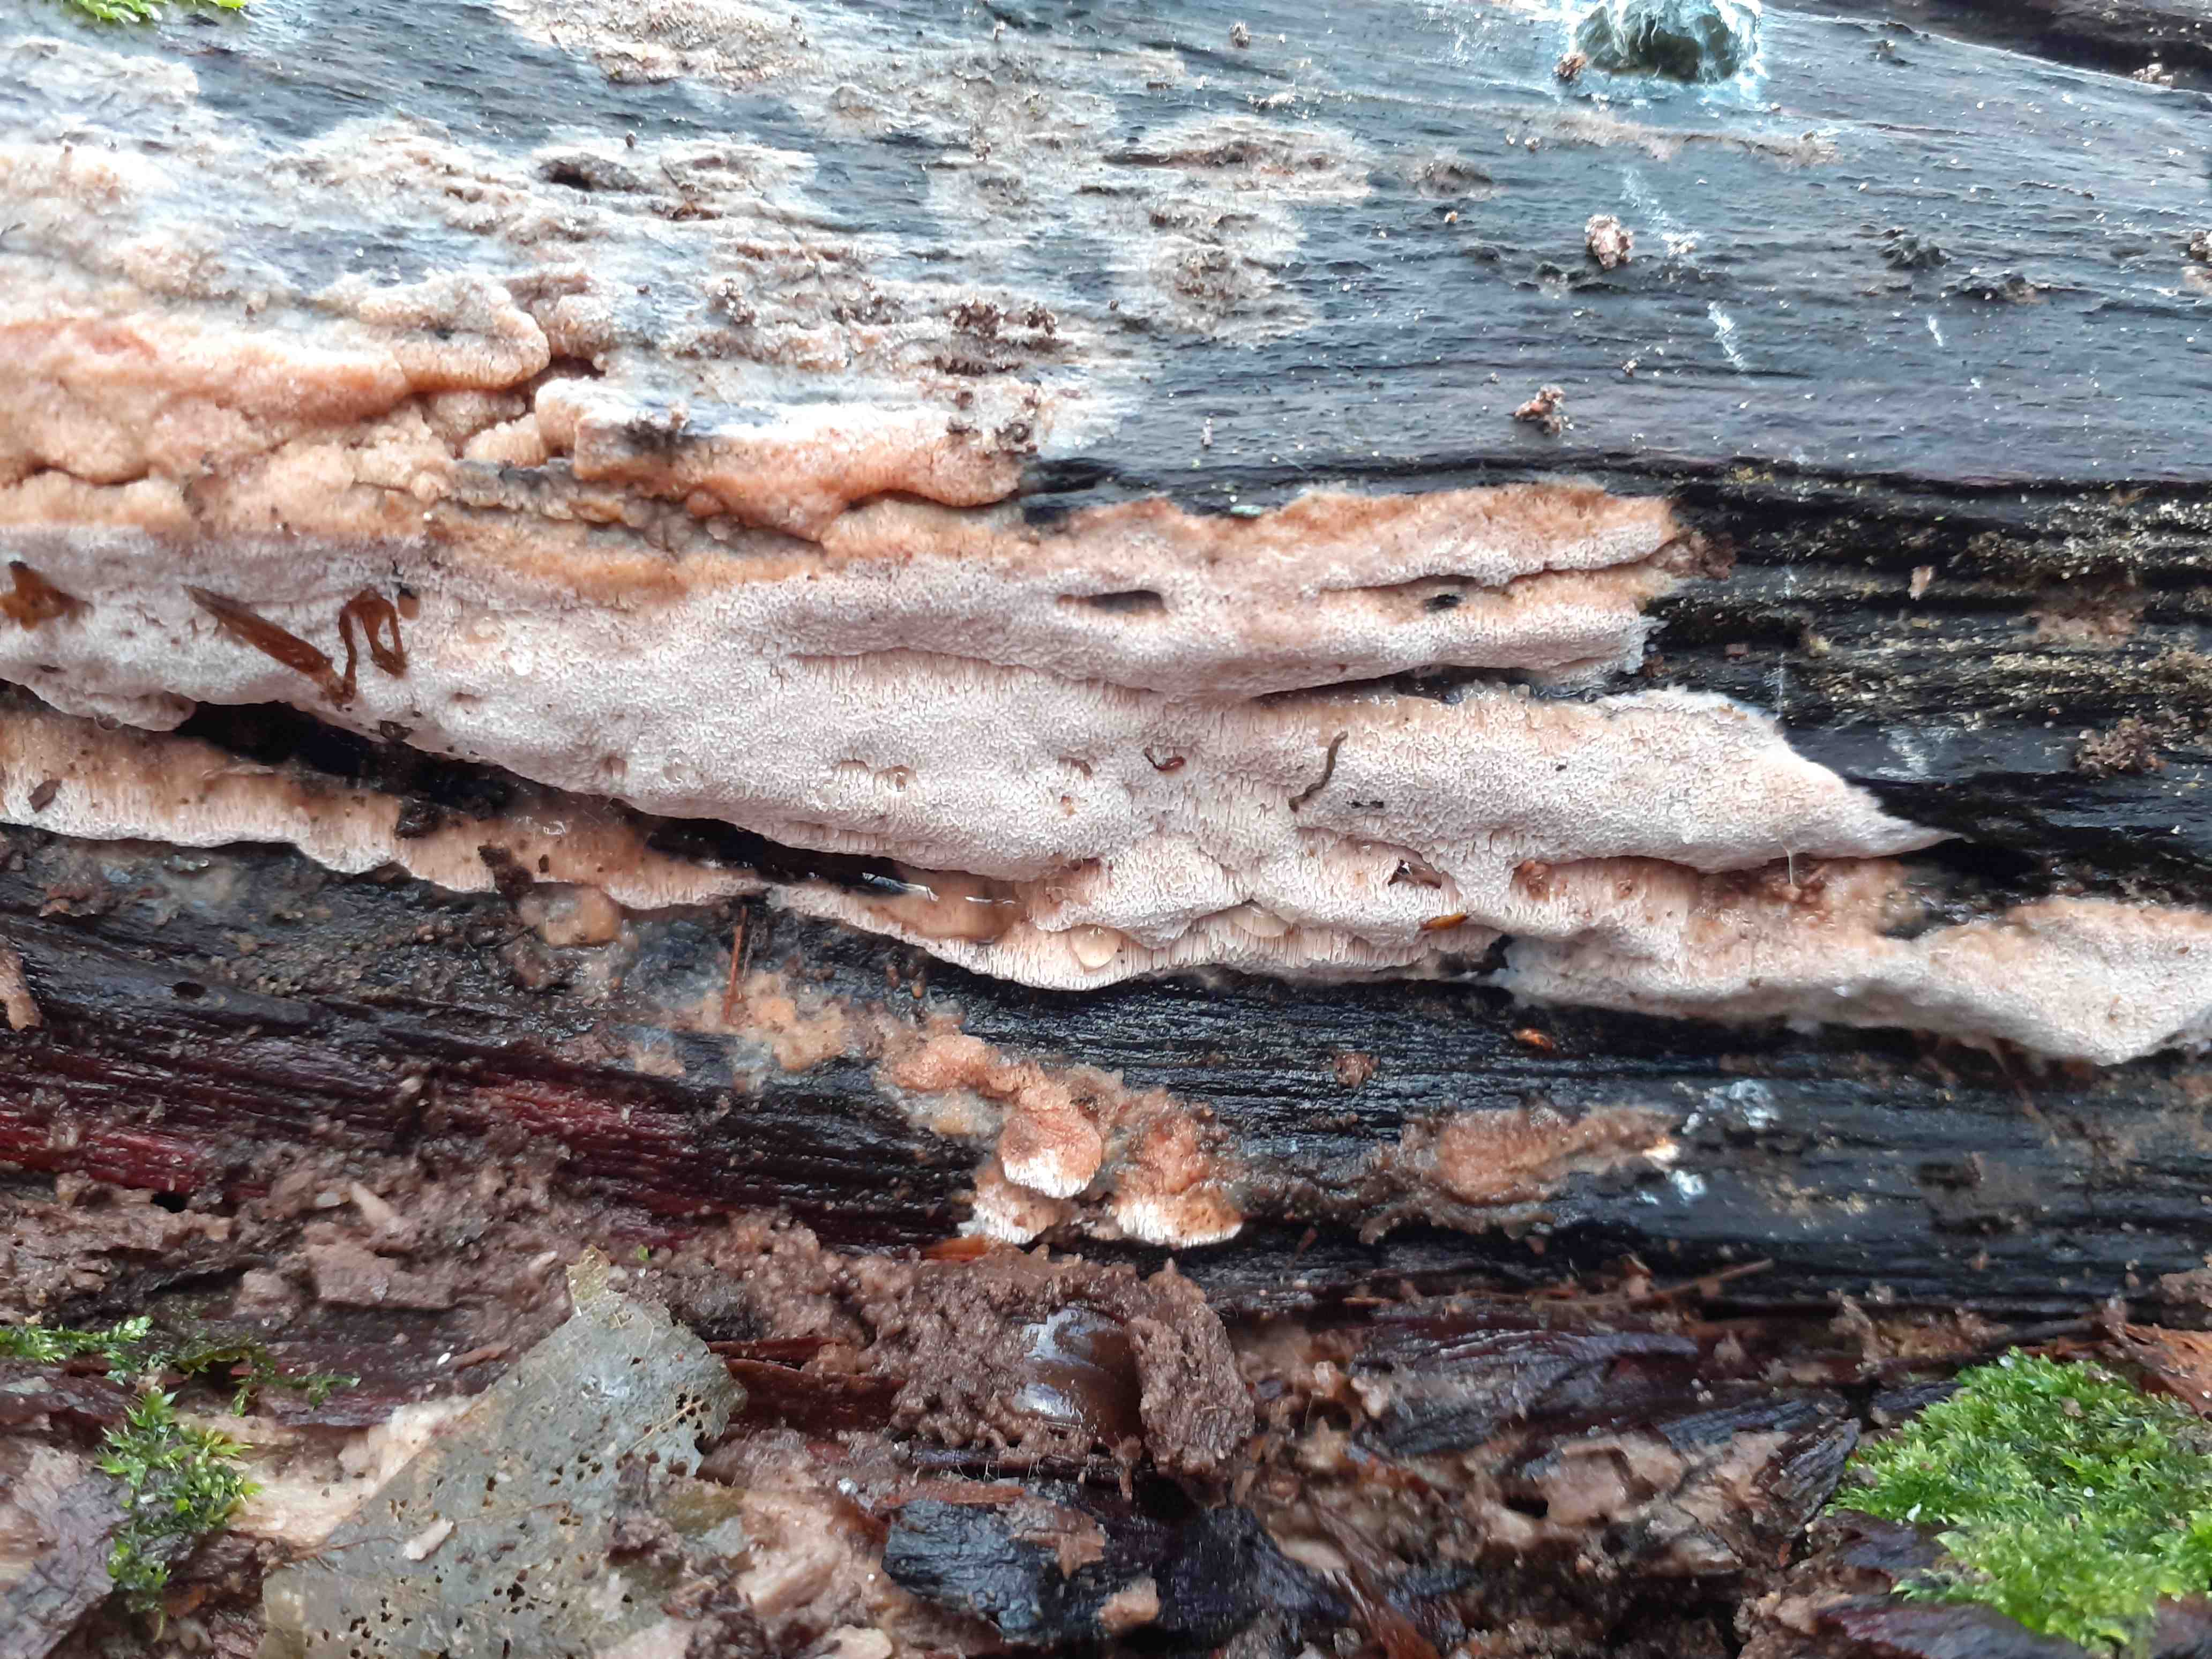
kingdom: Fungi
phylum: Basidiomycota
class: Agaricomycetes
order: Polyporales
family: Meruliaceae
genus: Mycoacia
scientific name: Mycoacia gilvescens
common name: rosa pastelporesvamp
